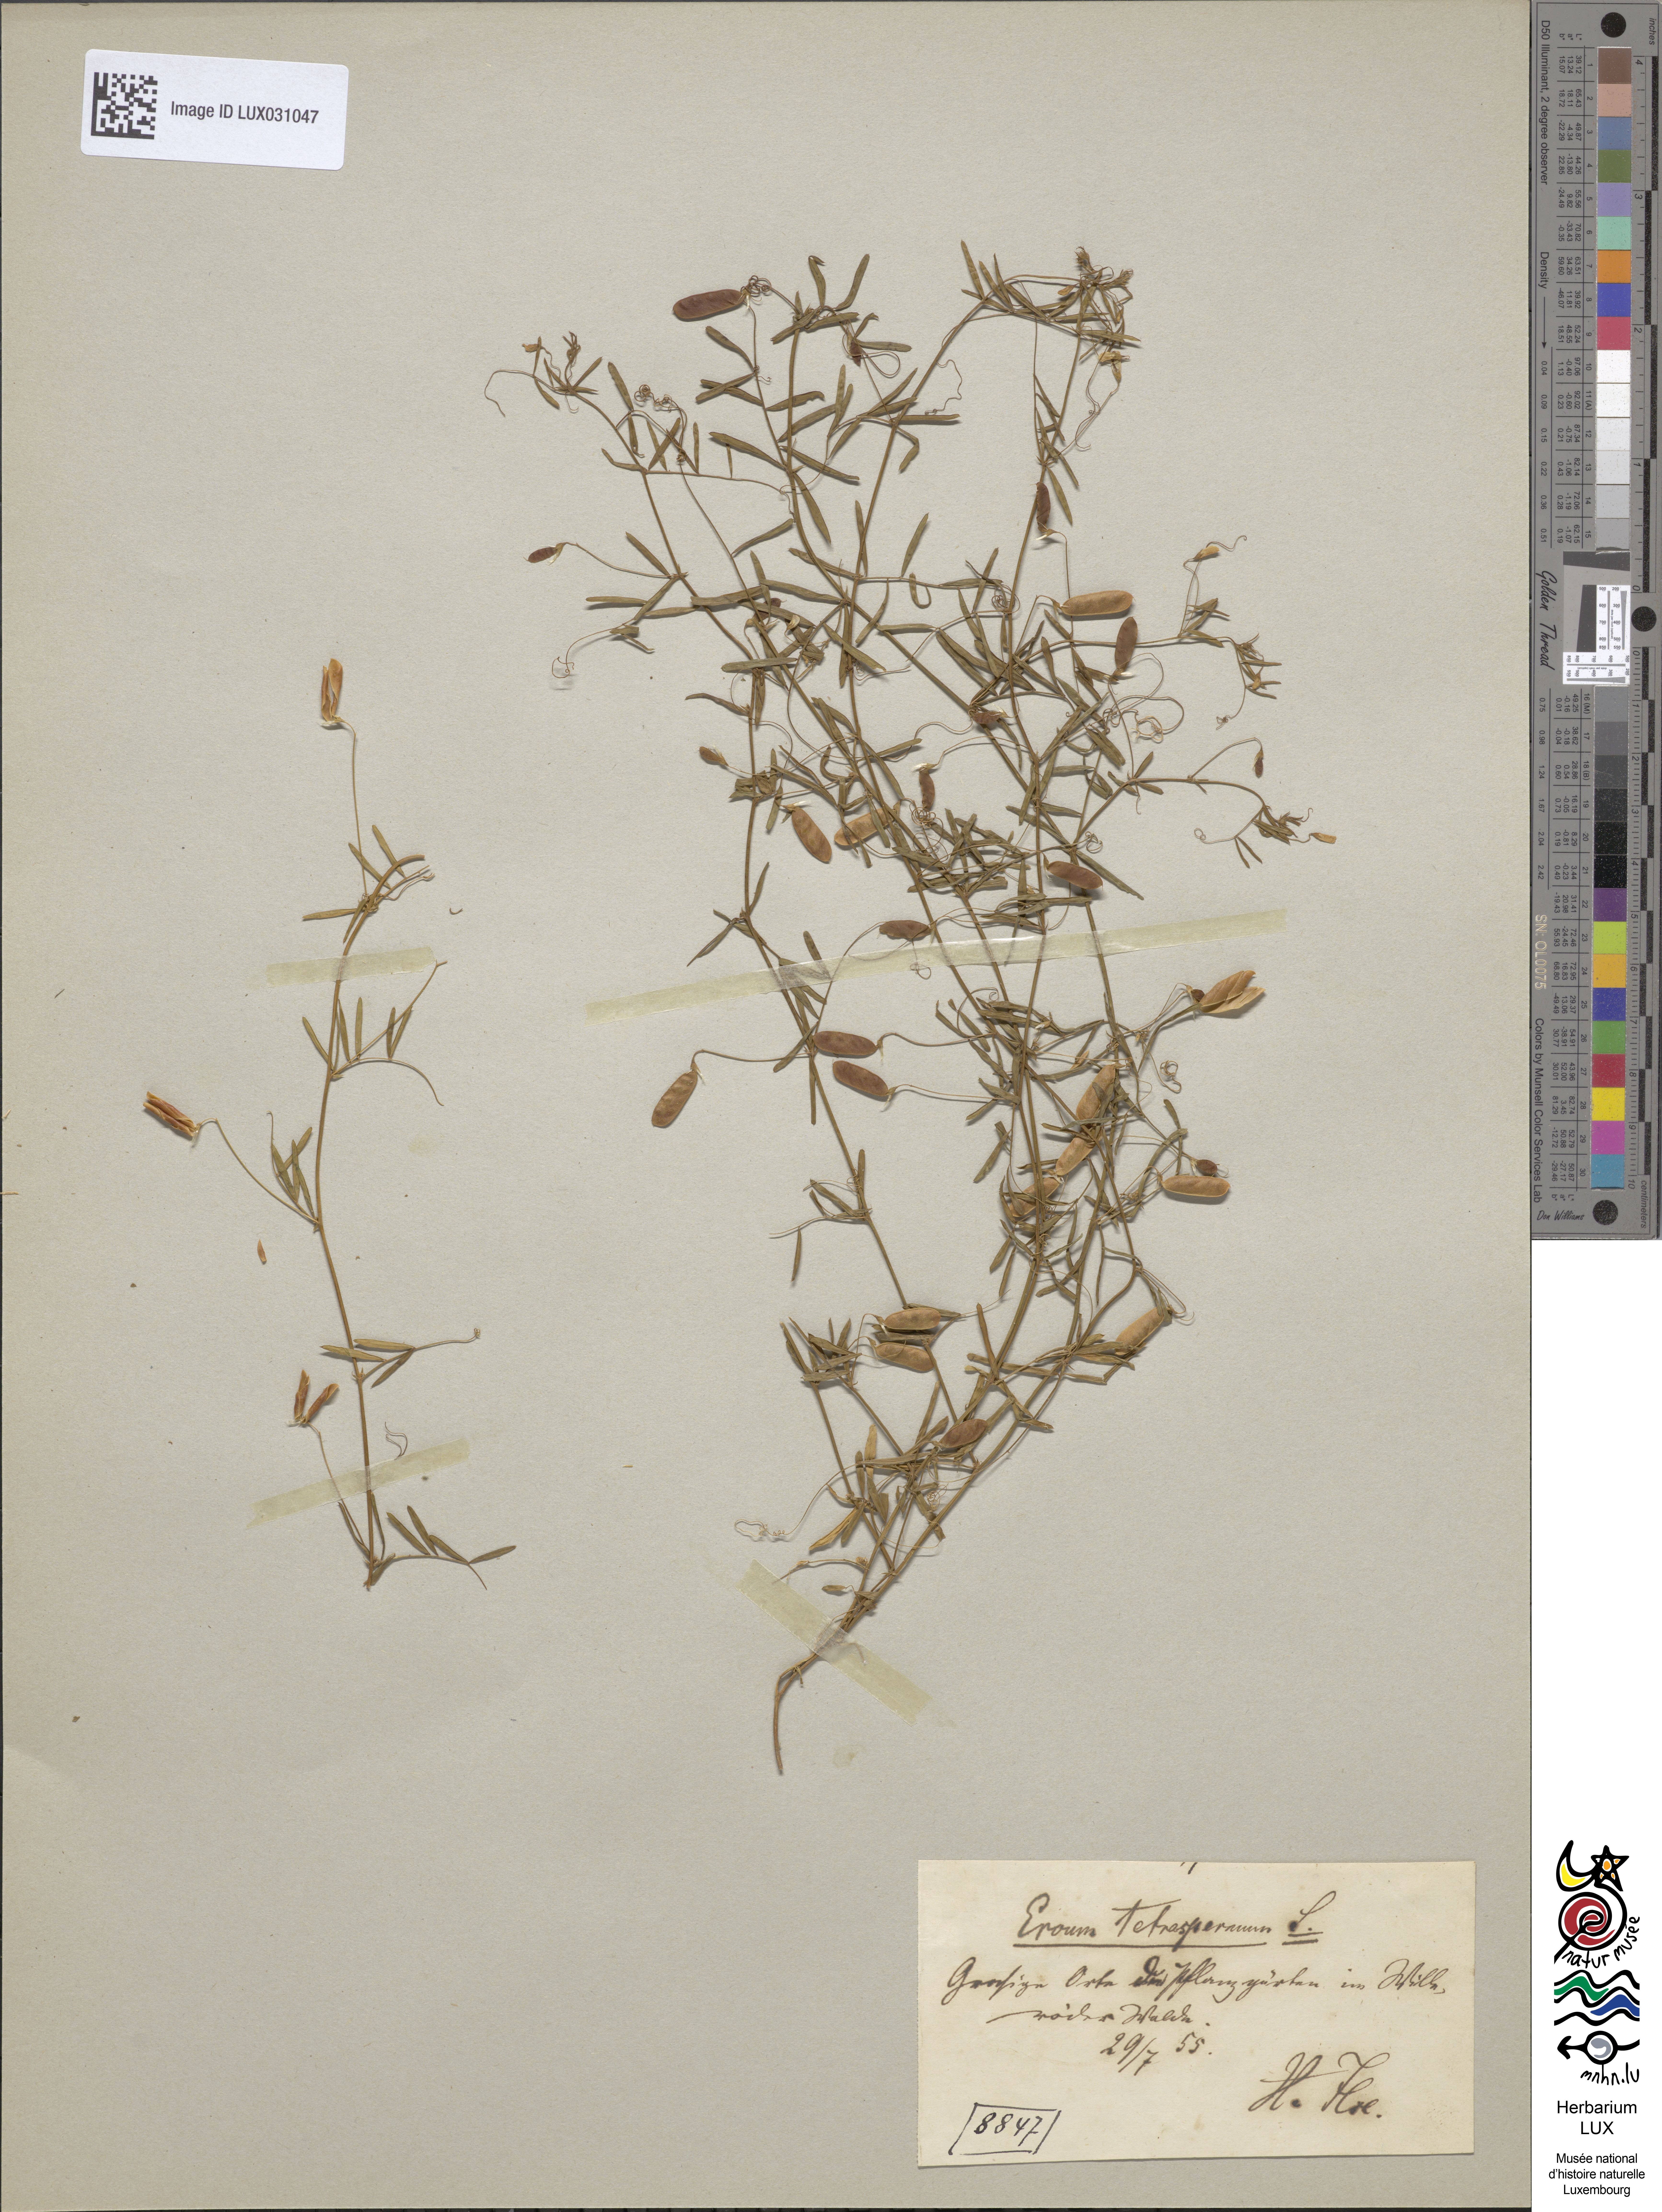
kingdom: Plantae
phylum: Tracheophyta
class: Magnoliopsida
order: Fabales
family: Fabaceae
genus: Vicia
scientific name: Vicia tetrasperma
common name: Smooth tare
